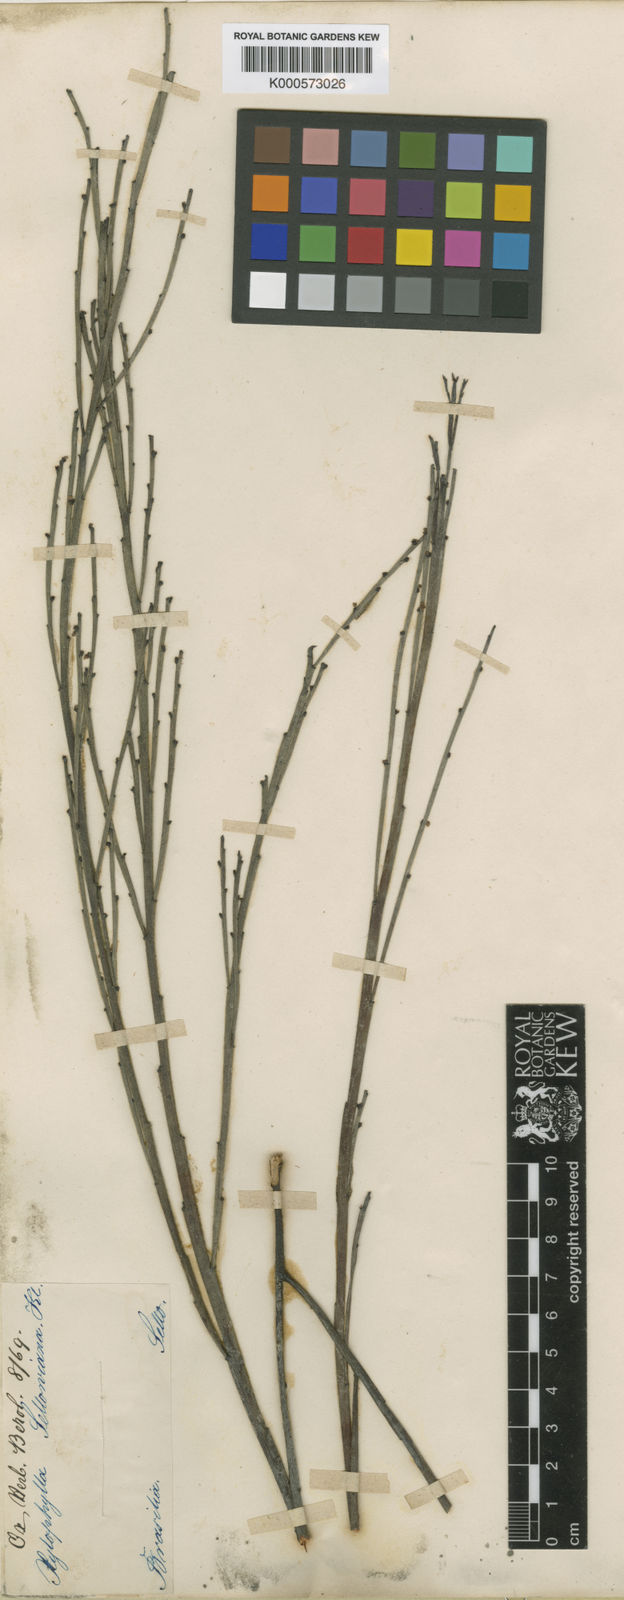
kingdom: Plantae
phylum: Tracheophyta
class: Magnoliopsida
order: Malpighiales
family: Phyllanthaceae
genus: Phyllanthus
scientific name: Phyllanthus
